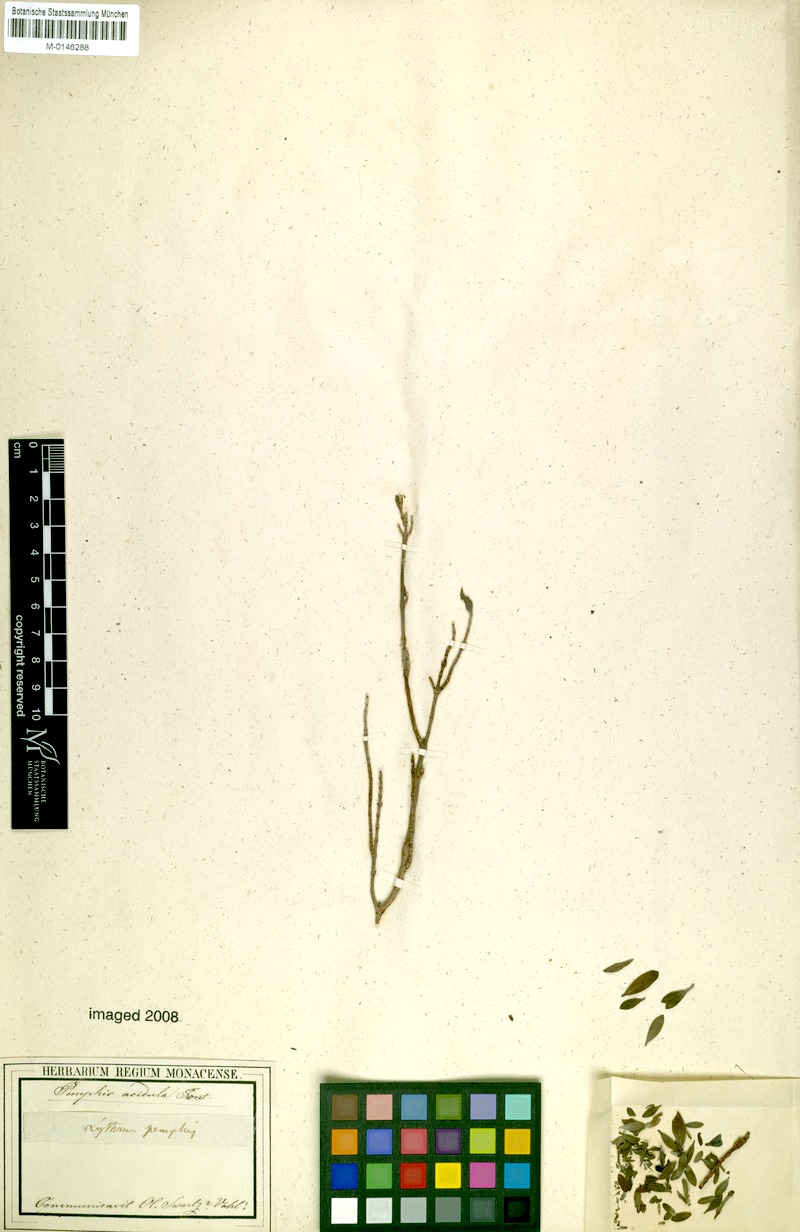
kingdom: Plantae
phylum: Tracheophyta
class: Magnoliopsida
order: Myrtales
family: Lythraceae
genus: Pemphis
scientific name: Pemphis acidula
